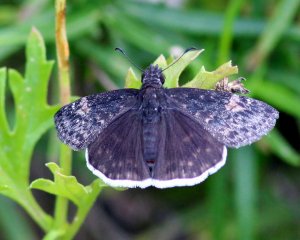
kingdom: Animalia
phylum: Arthropoda
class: Insecta
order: Lepidoptera
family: Hesperiidae
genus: Erynnis
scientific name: Erynnis funeralis
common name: Funereal Duskywing
